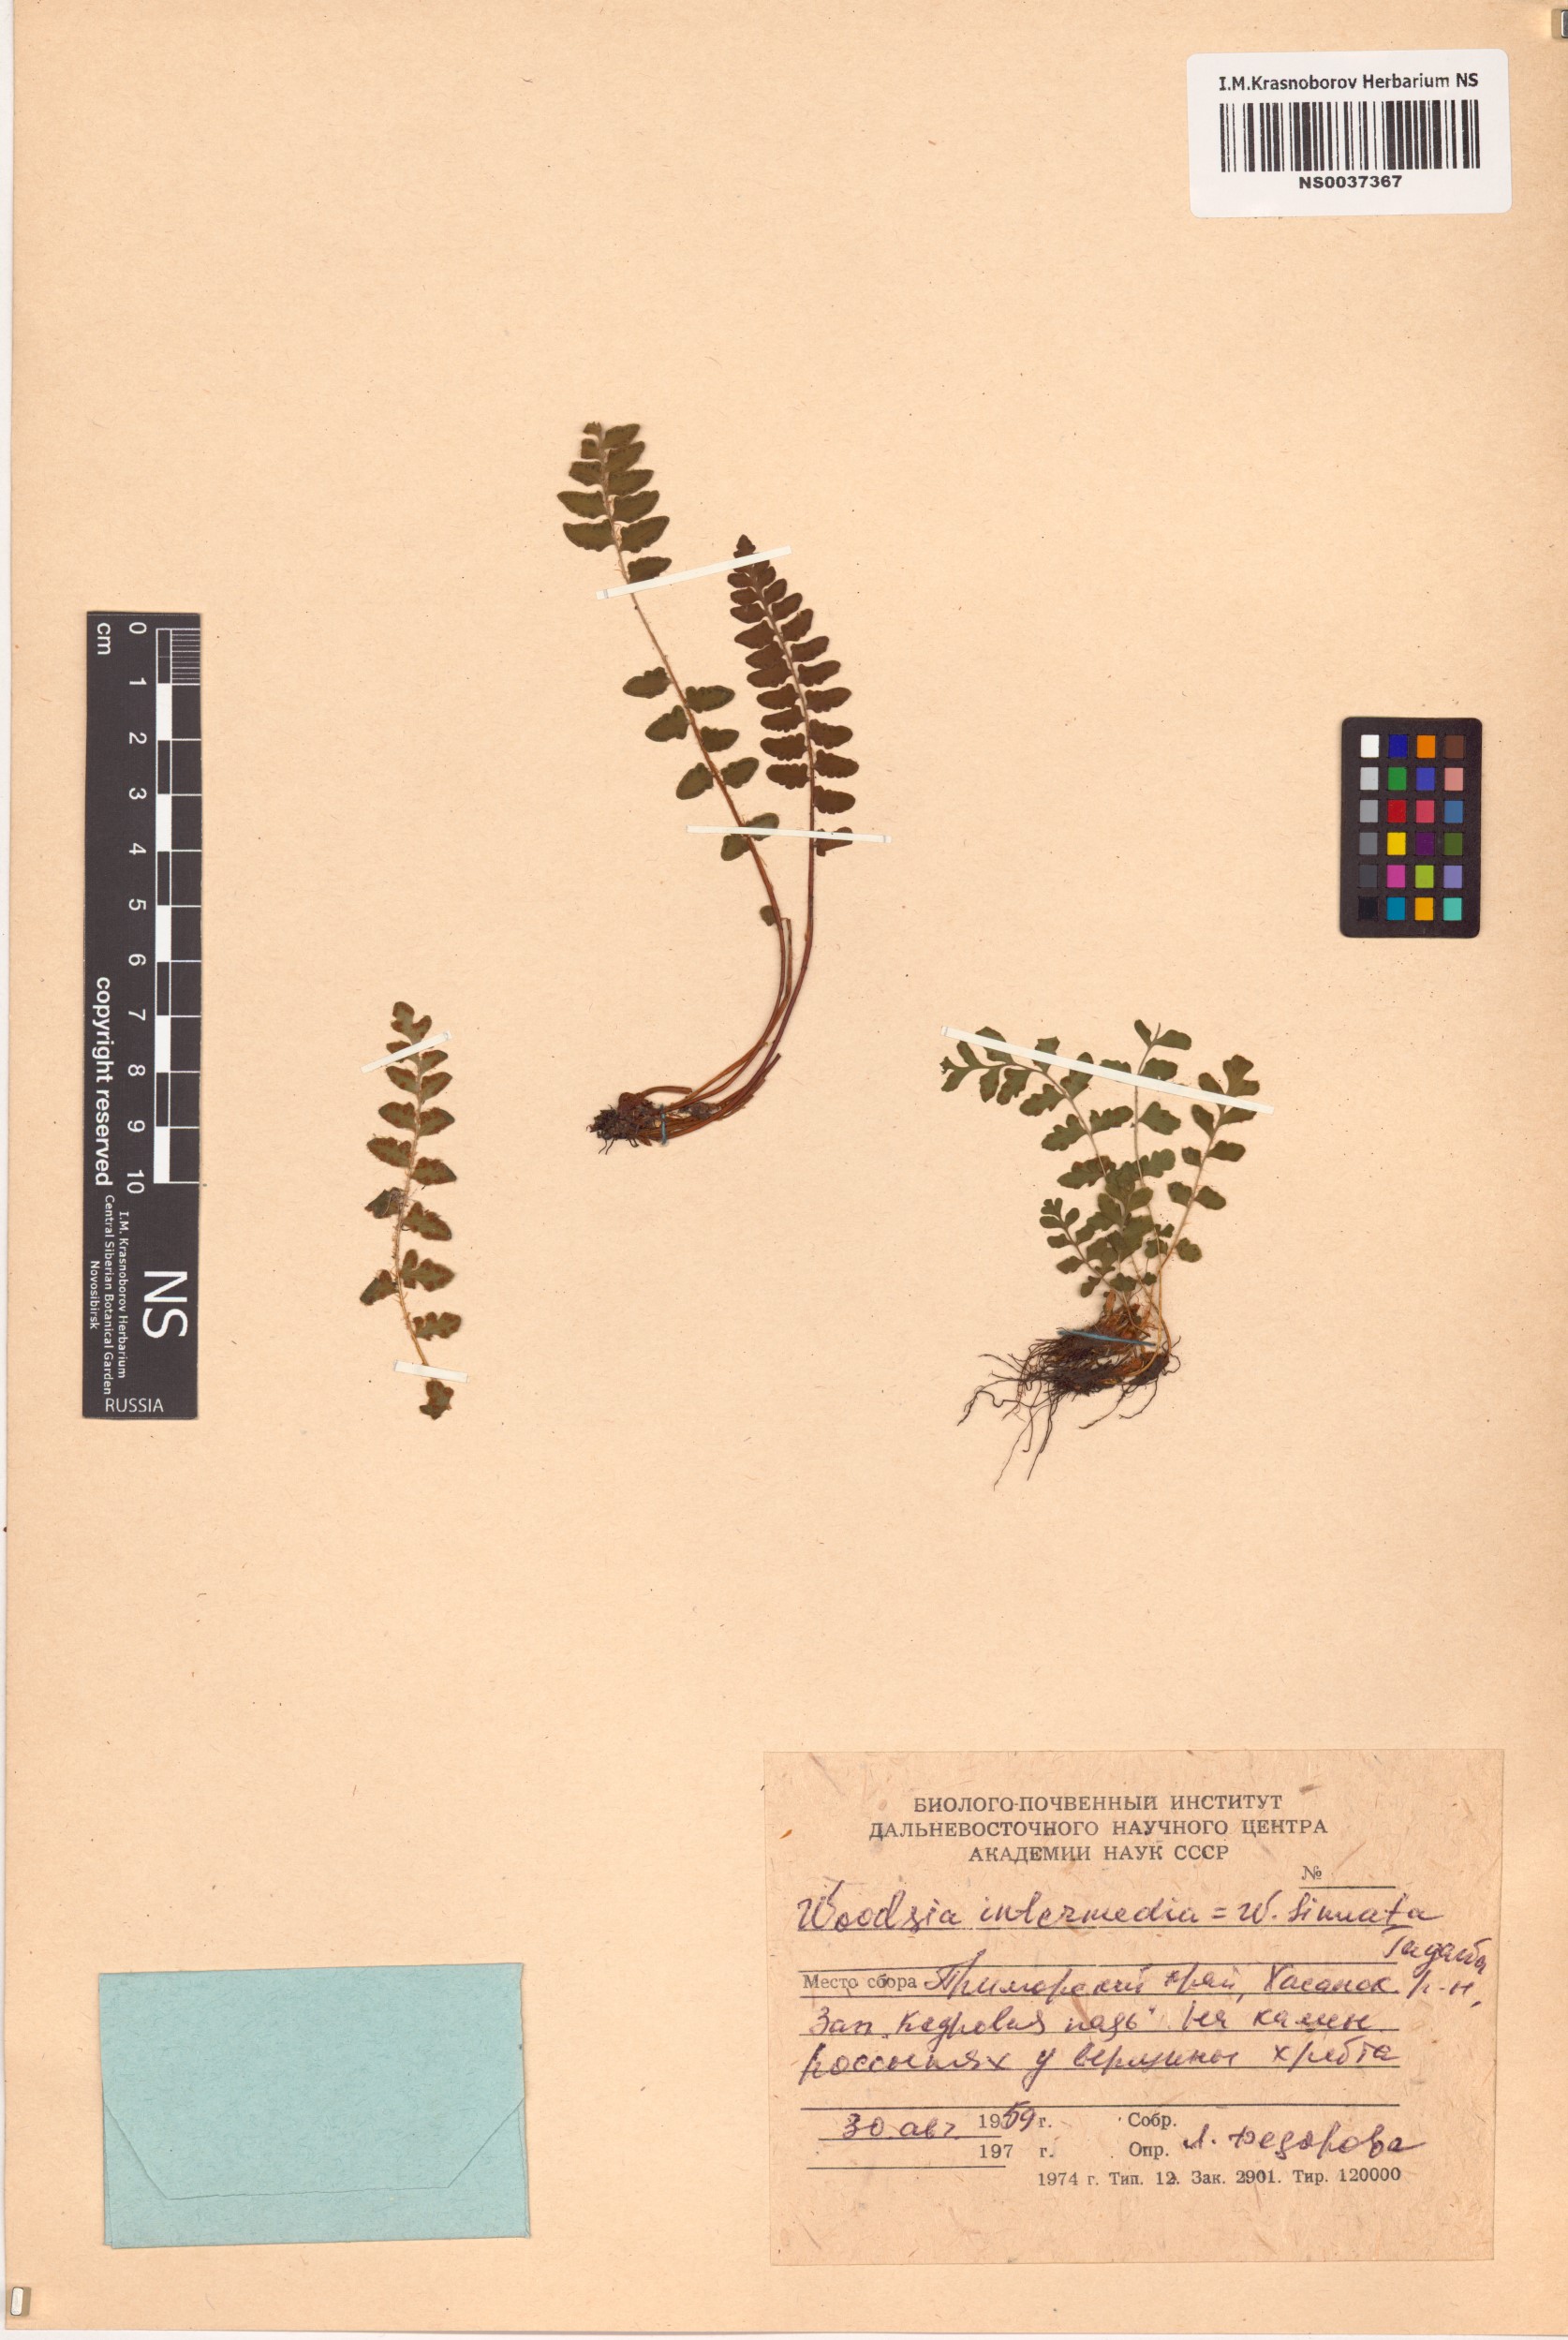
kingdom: Plantae
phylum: Tracheophyta
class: Polypodiopsida
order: Polypodiales
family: Woodsiaceae
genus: Woodsia
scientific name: Woodsia taishanensis
